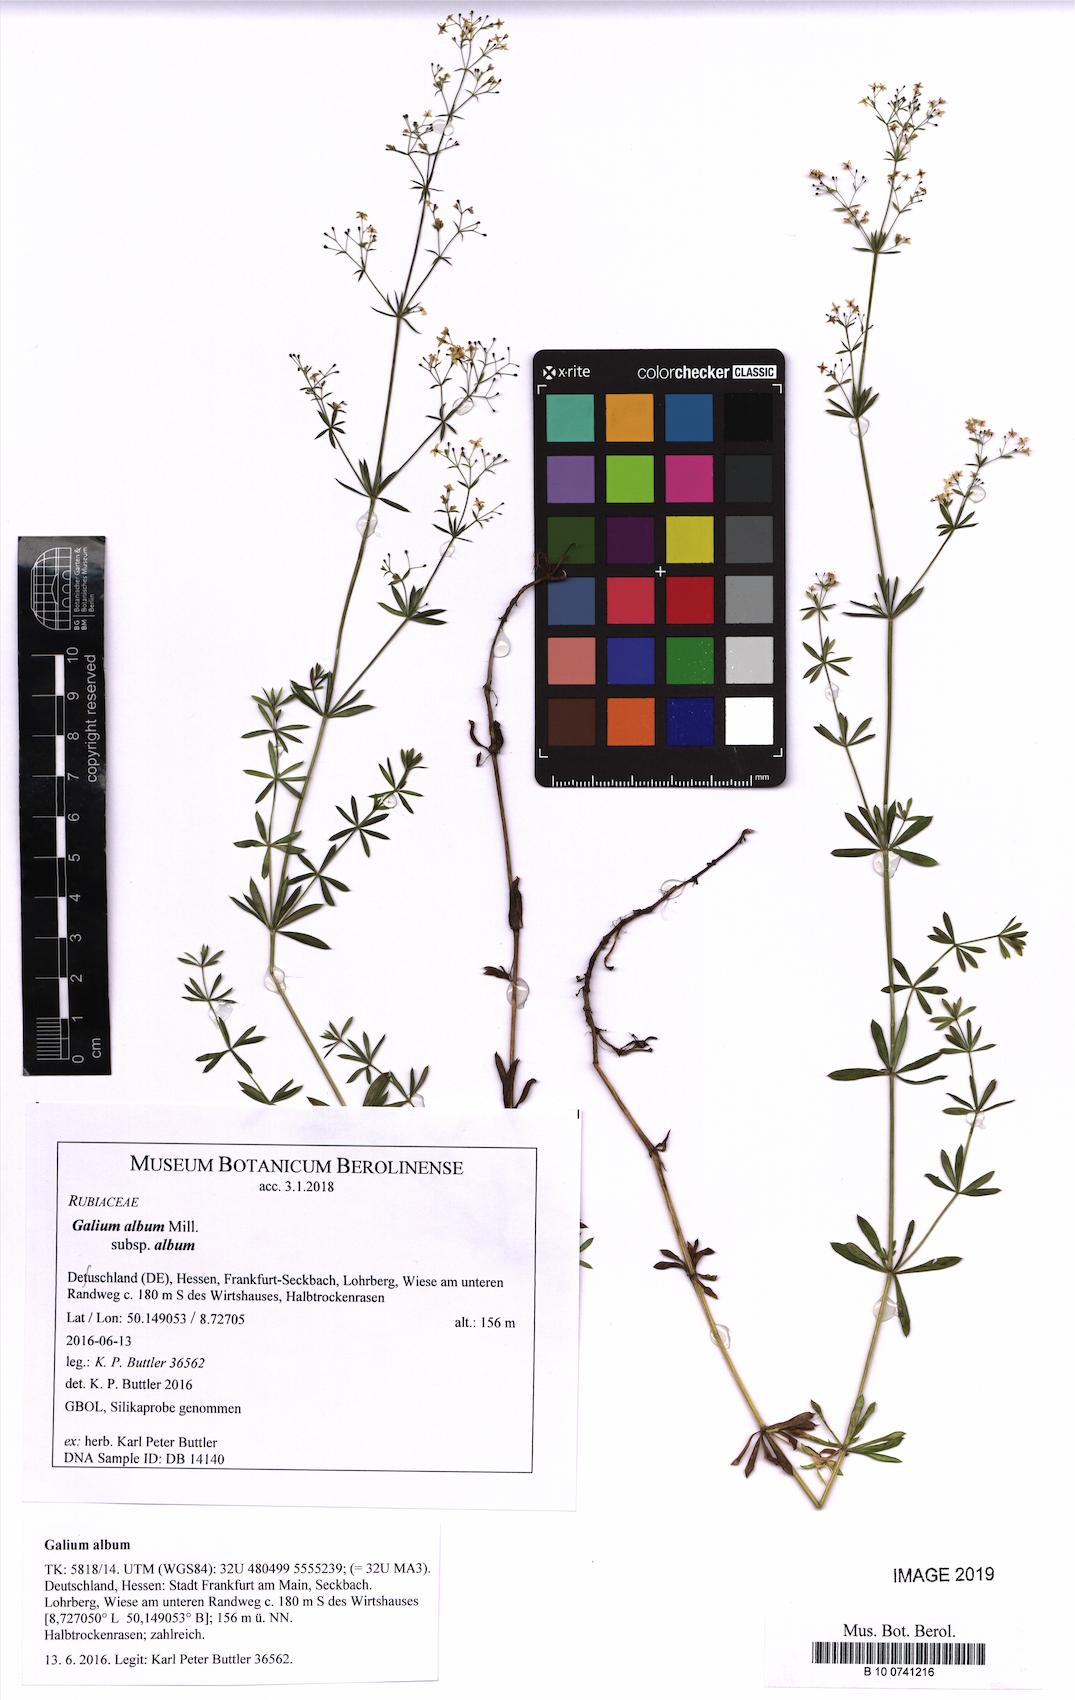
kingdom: Plantae
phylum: Tracheophyta
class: Magnoliopsida
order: Gentianales
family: Rubiaceae
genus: Galium
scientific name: Galium album
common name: White bedstraw
